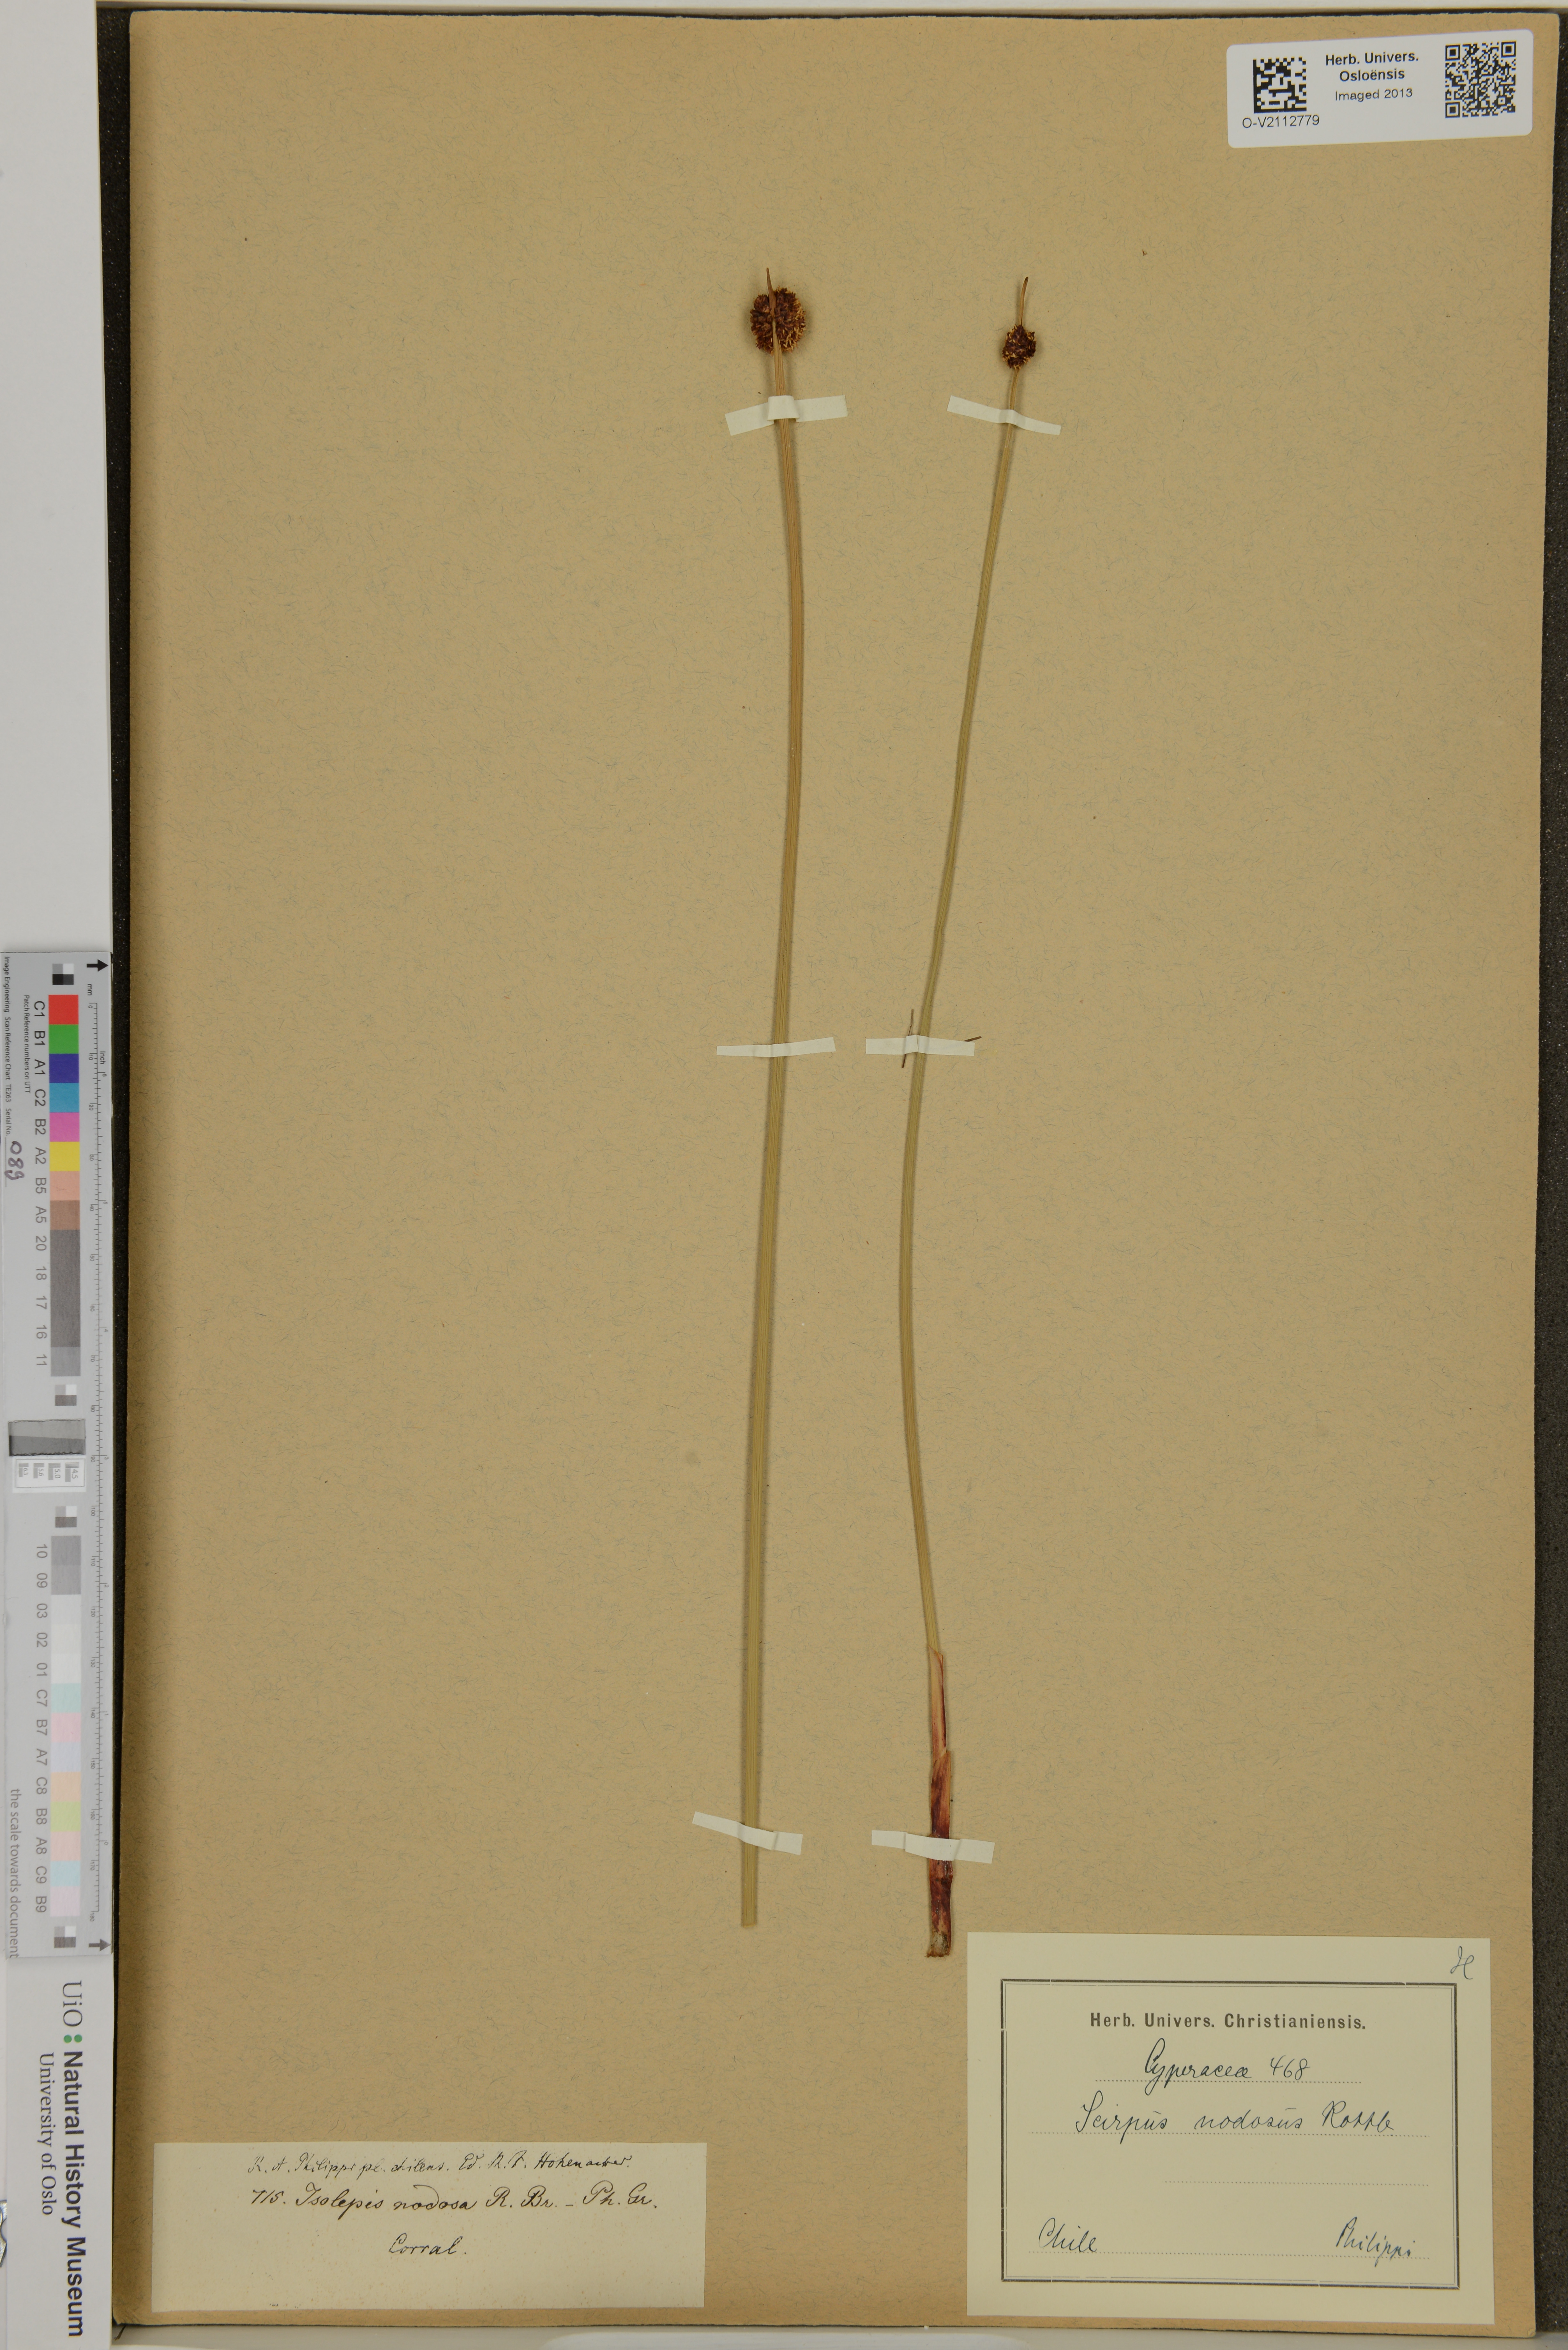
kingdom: Plantae
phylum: Tracheophyta
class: Liliopsida
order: Poales
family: Cyperaceae
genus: Ficinia
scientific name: Ficinia nodosa
